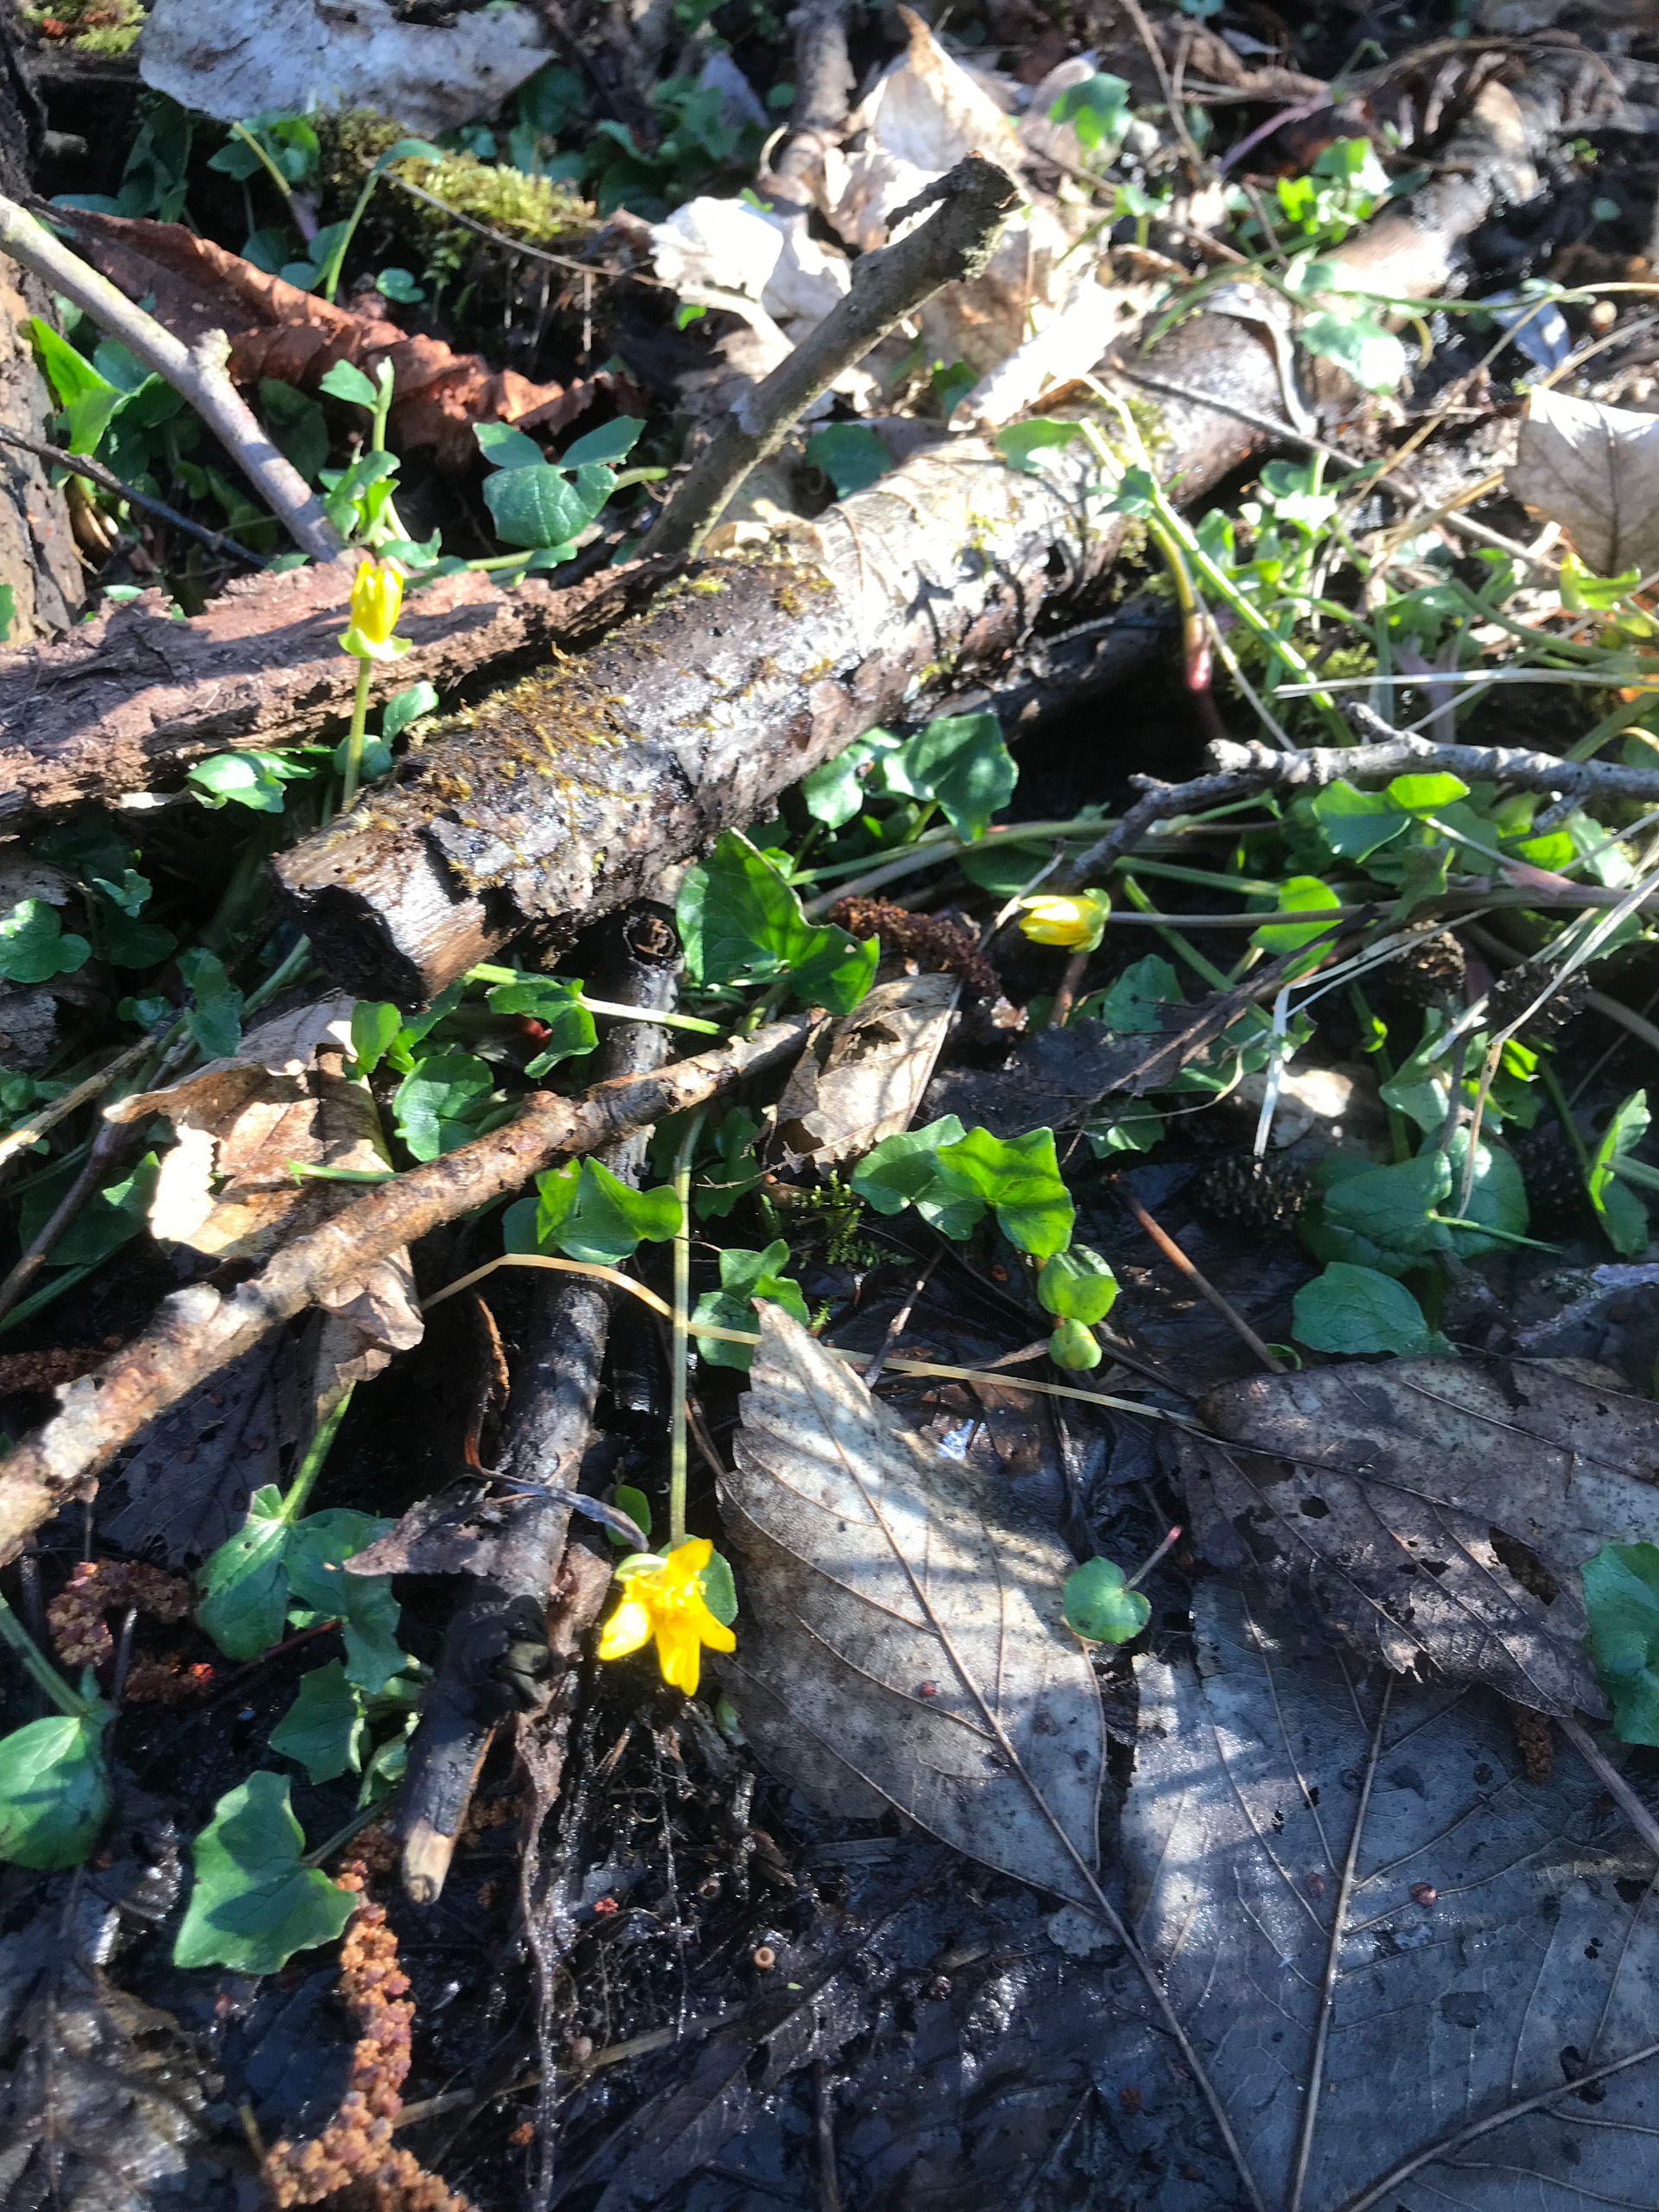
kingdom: Plantae
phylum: Tracheophyta
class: Magnoliopsida
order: Ranunculales
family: Ranunculaceae
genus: Ficaria
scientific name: Ficaria verna
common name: Vorterod
